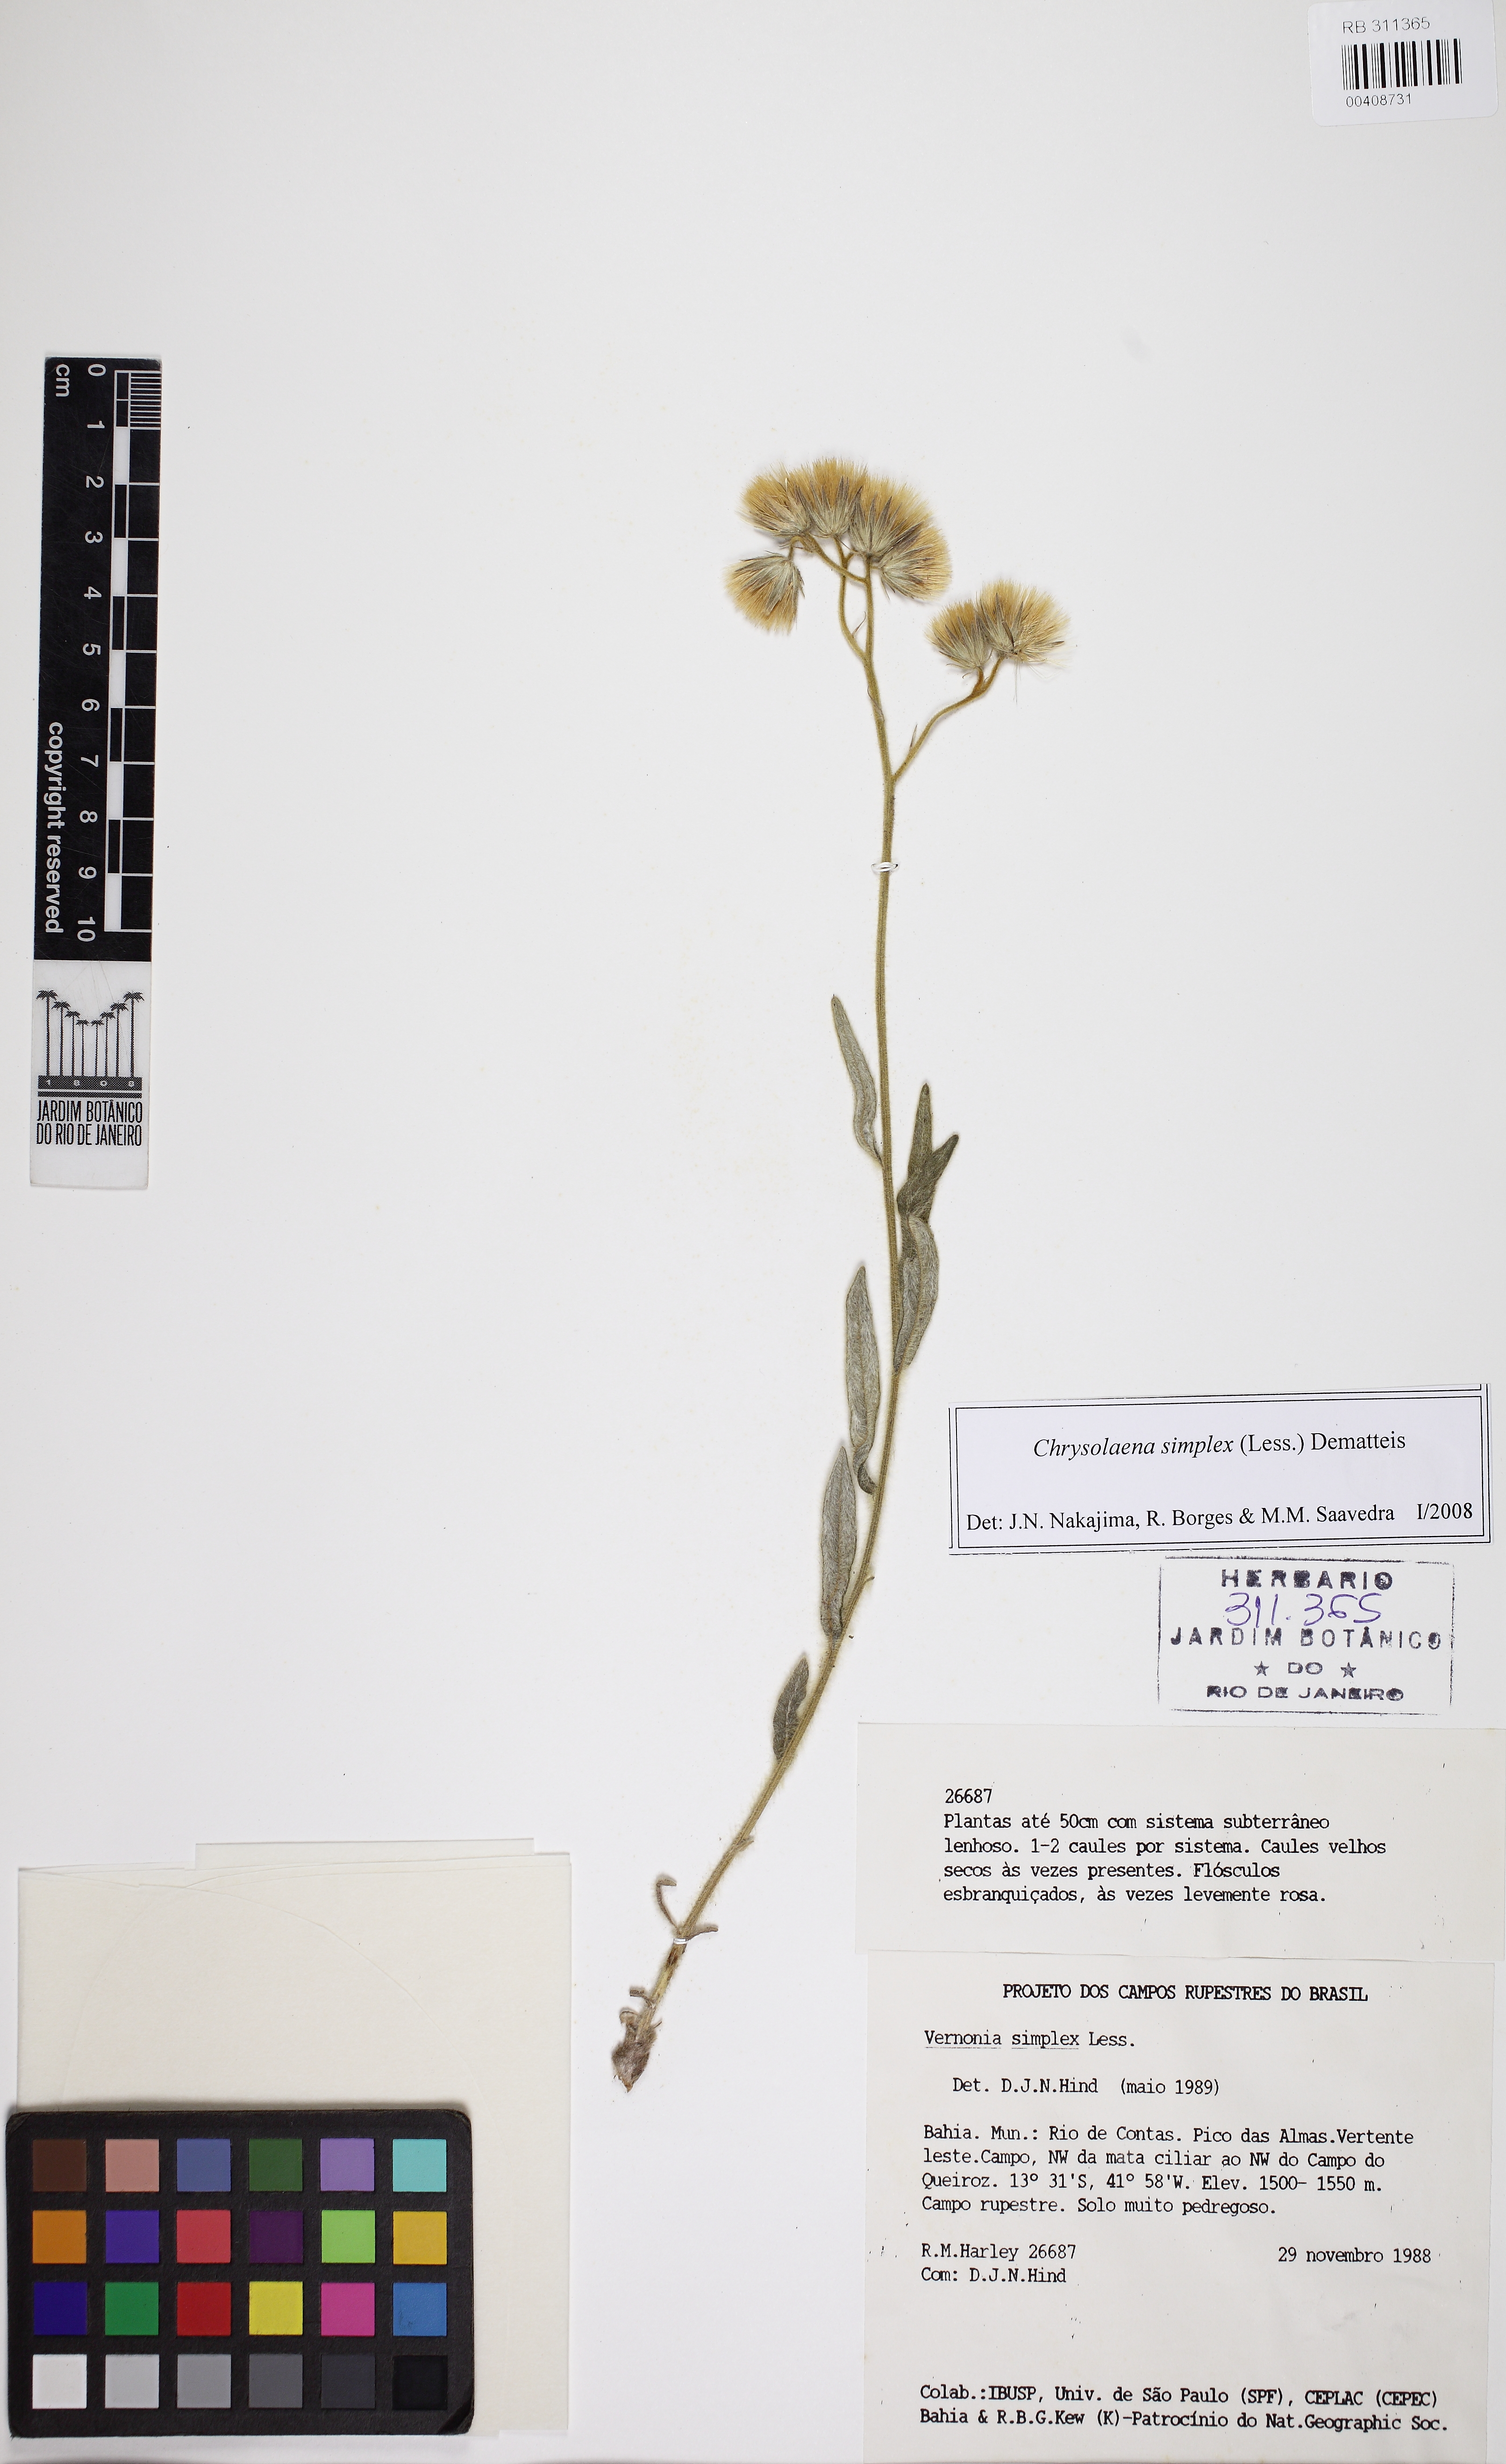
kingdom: Plantae
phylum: Tracheophyta
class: Magnoliopsida
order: Asterales
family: Asteraceae
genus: Chrysolaena
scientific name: Chrysolaena simplex
